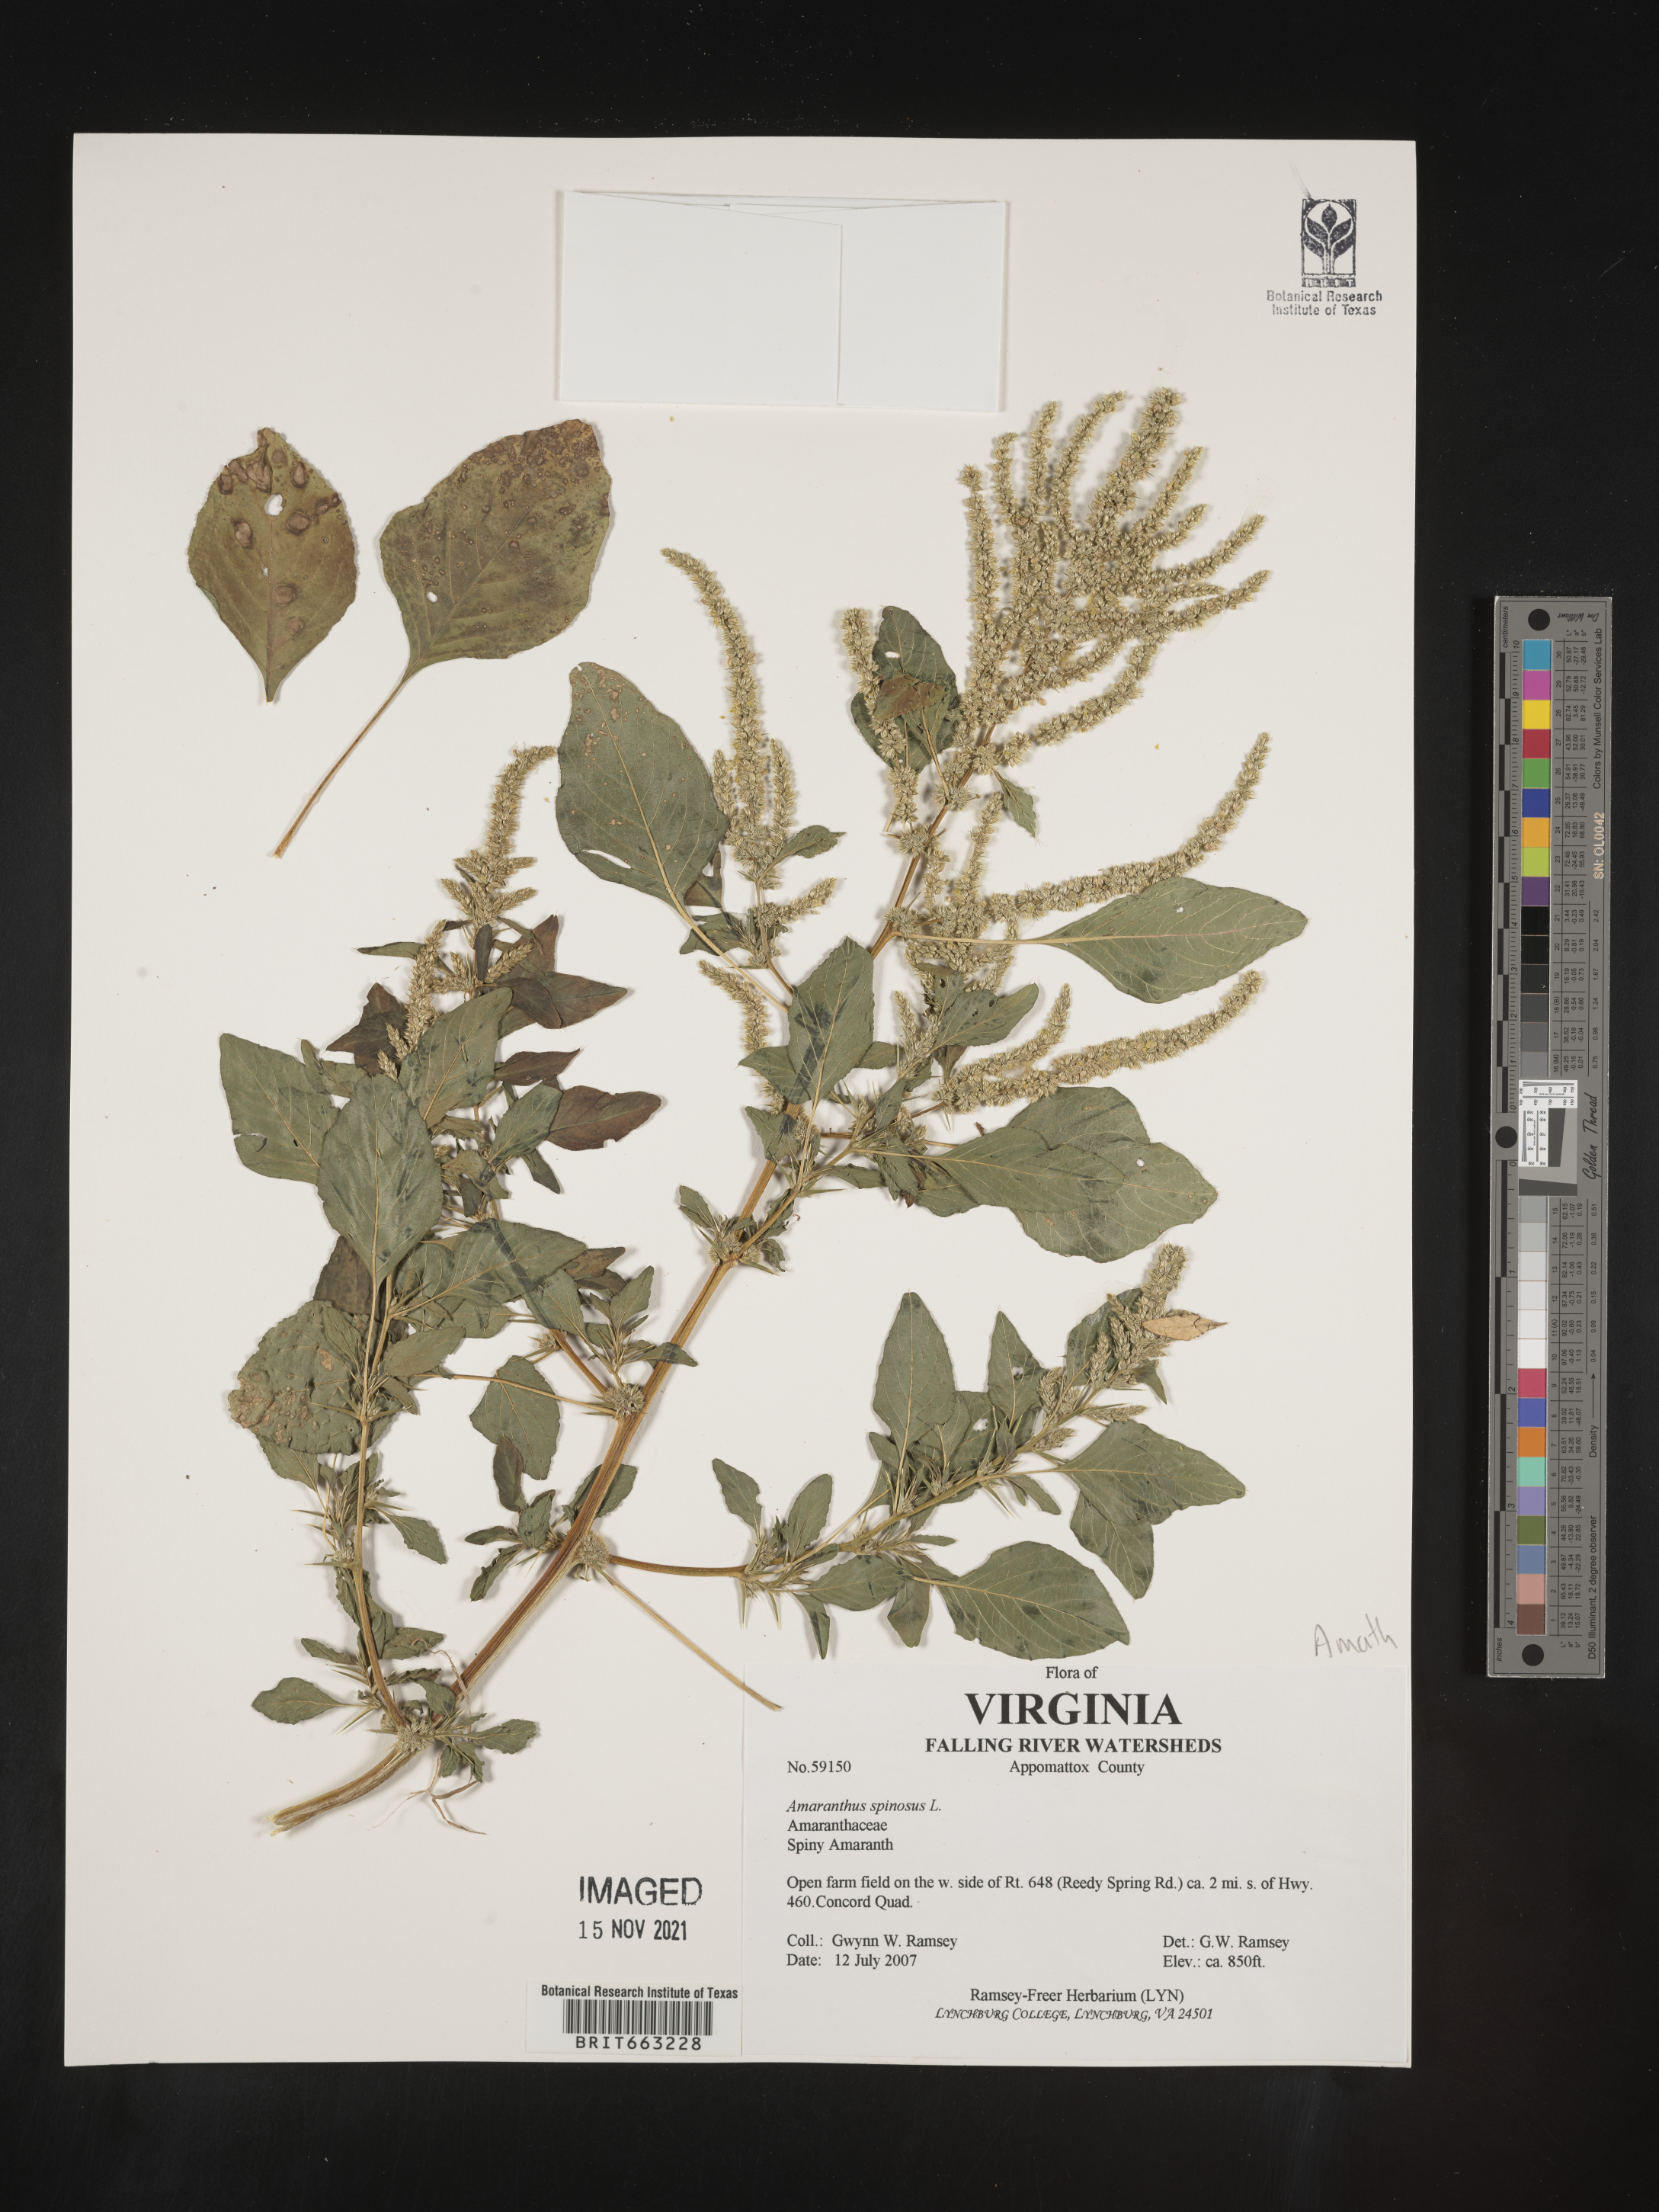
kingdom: Plantae
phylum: Tracheophyta
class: Magnoliopsida
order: Caryophyllales
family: Amaranthaceae
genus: Amaranthus
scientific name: Amaranthus spinosus
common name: Spiny amaranth
